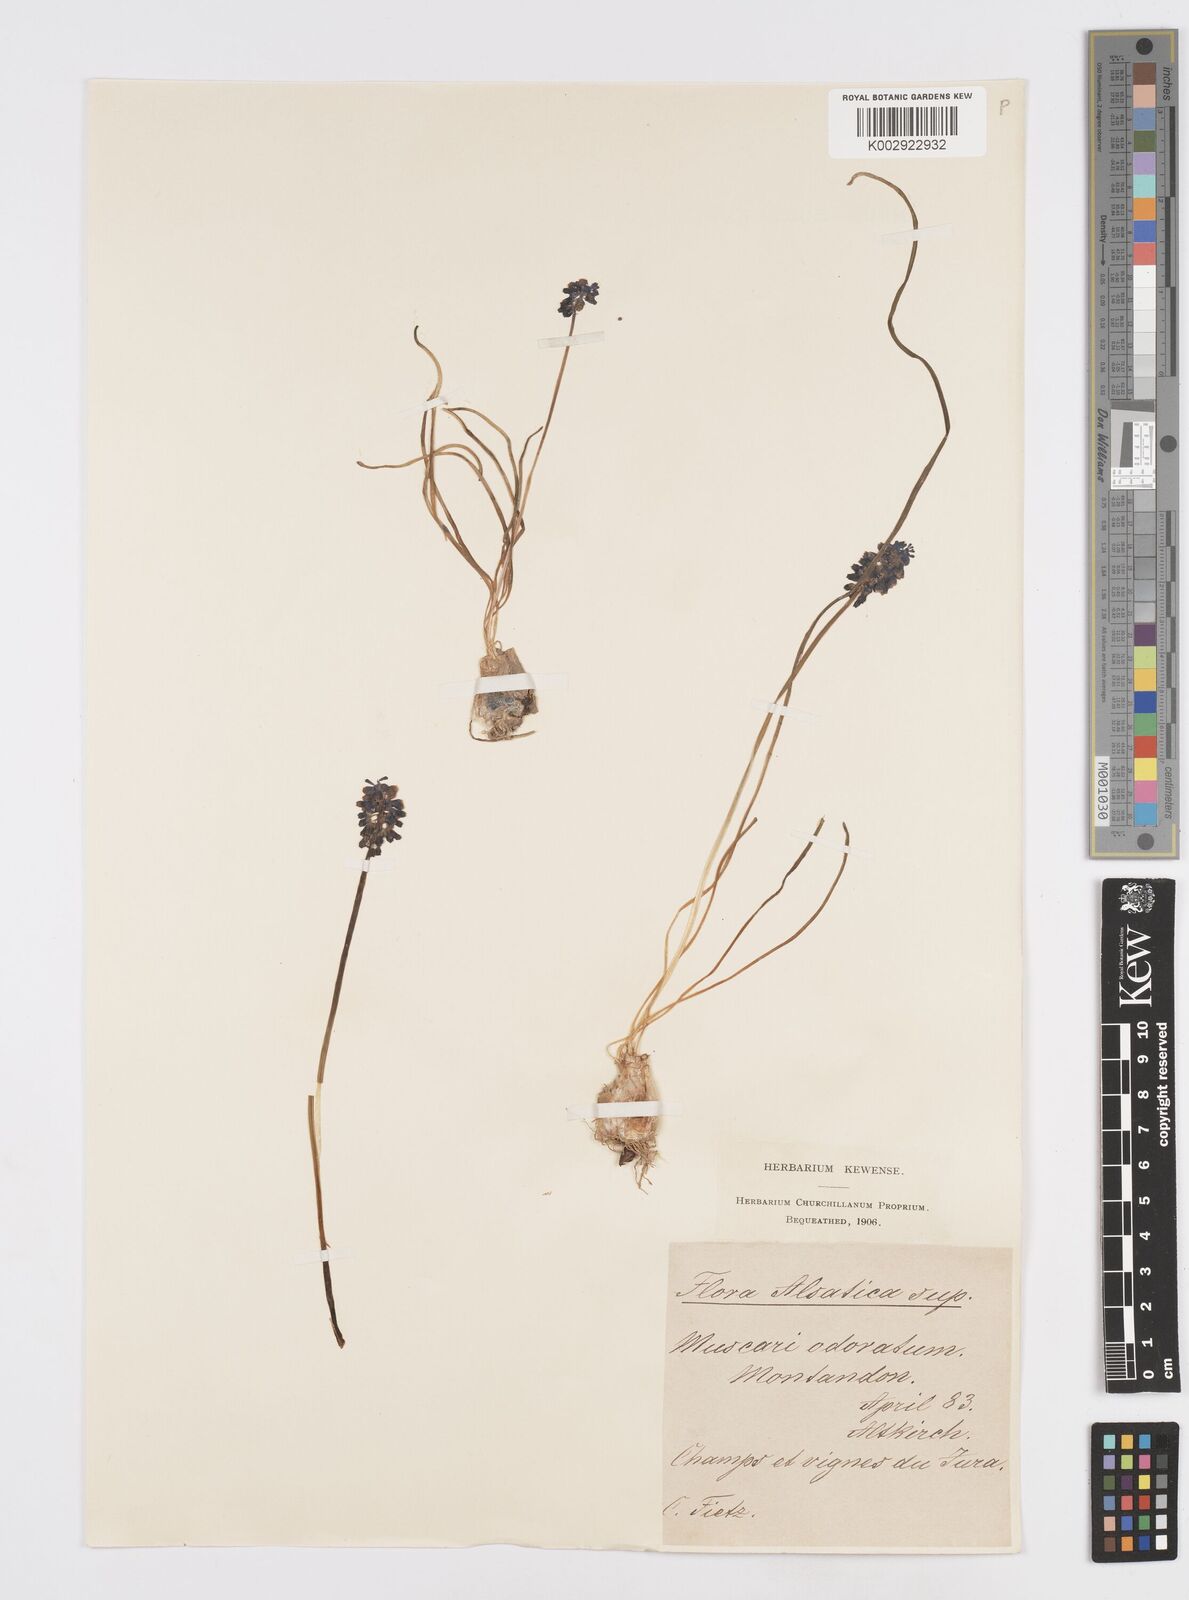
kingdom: Plantae
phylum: Tracheophyta
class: Liliopsida
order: Asparagales
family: Asparagaceae
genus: Muscarimia
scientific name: Muscarimia muscari
